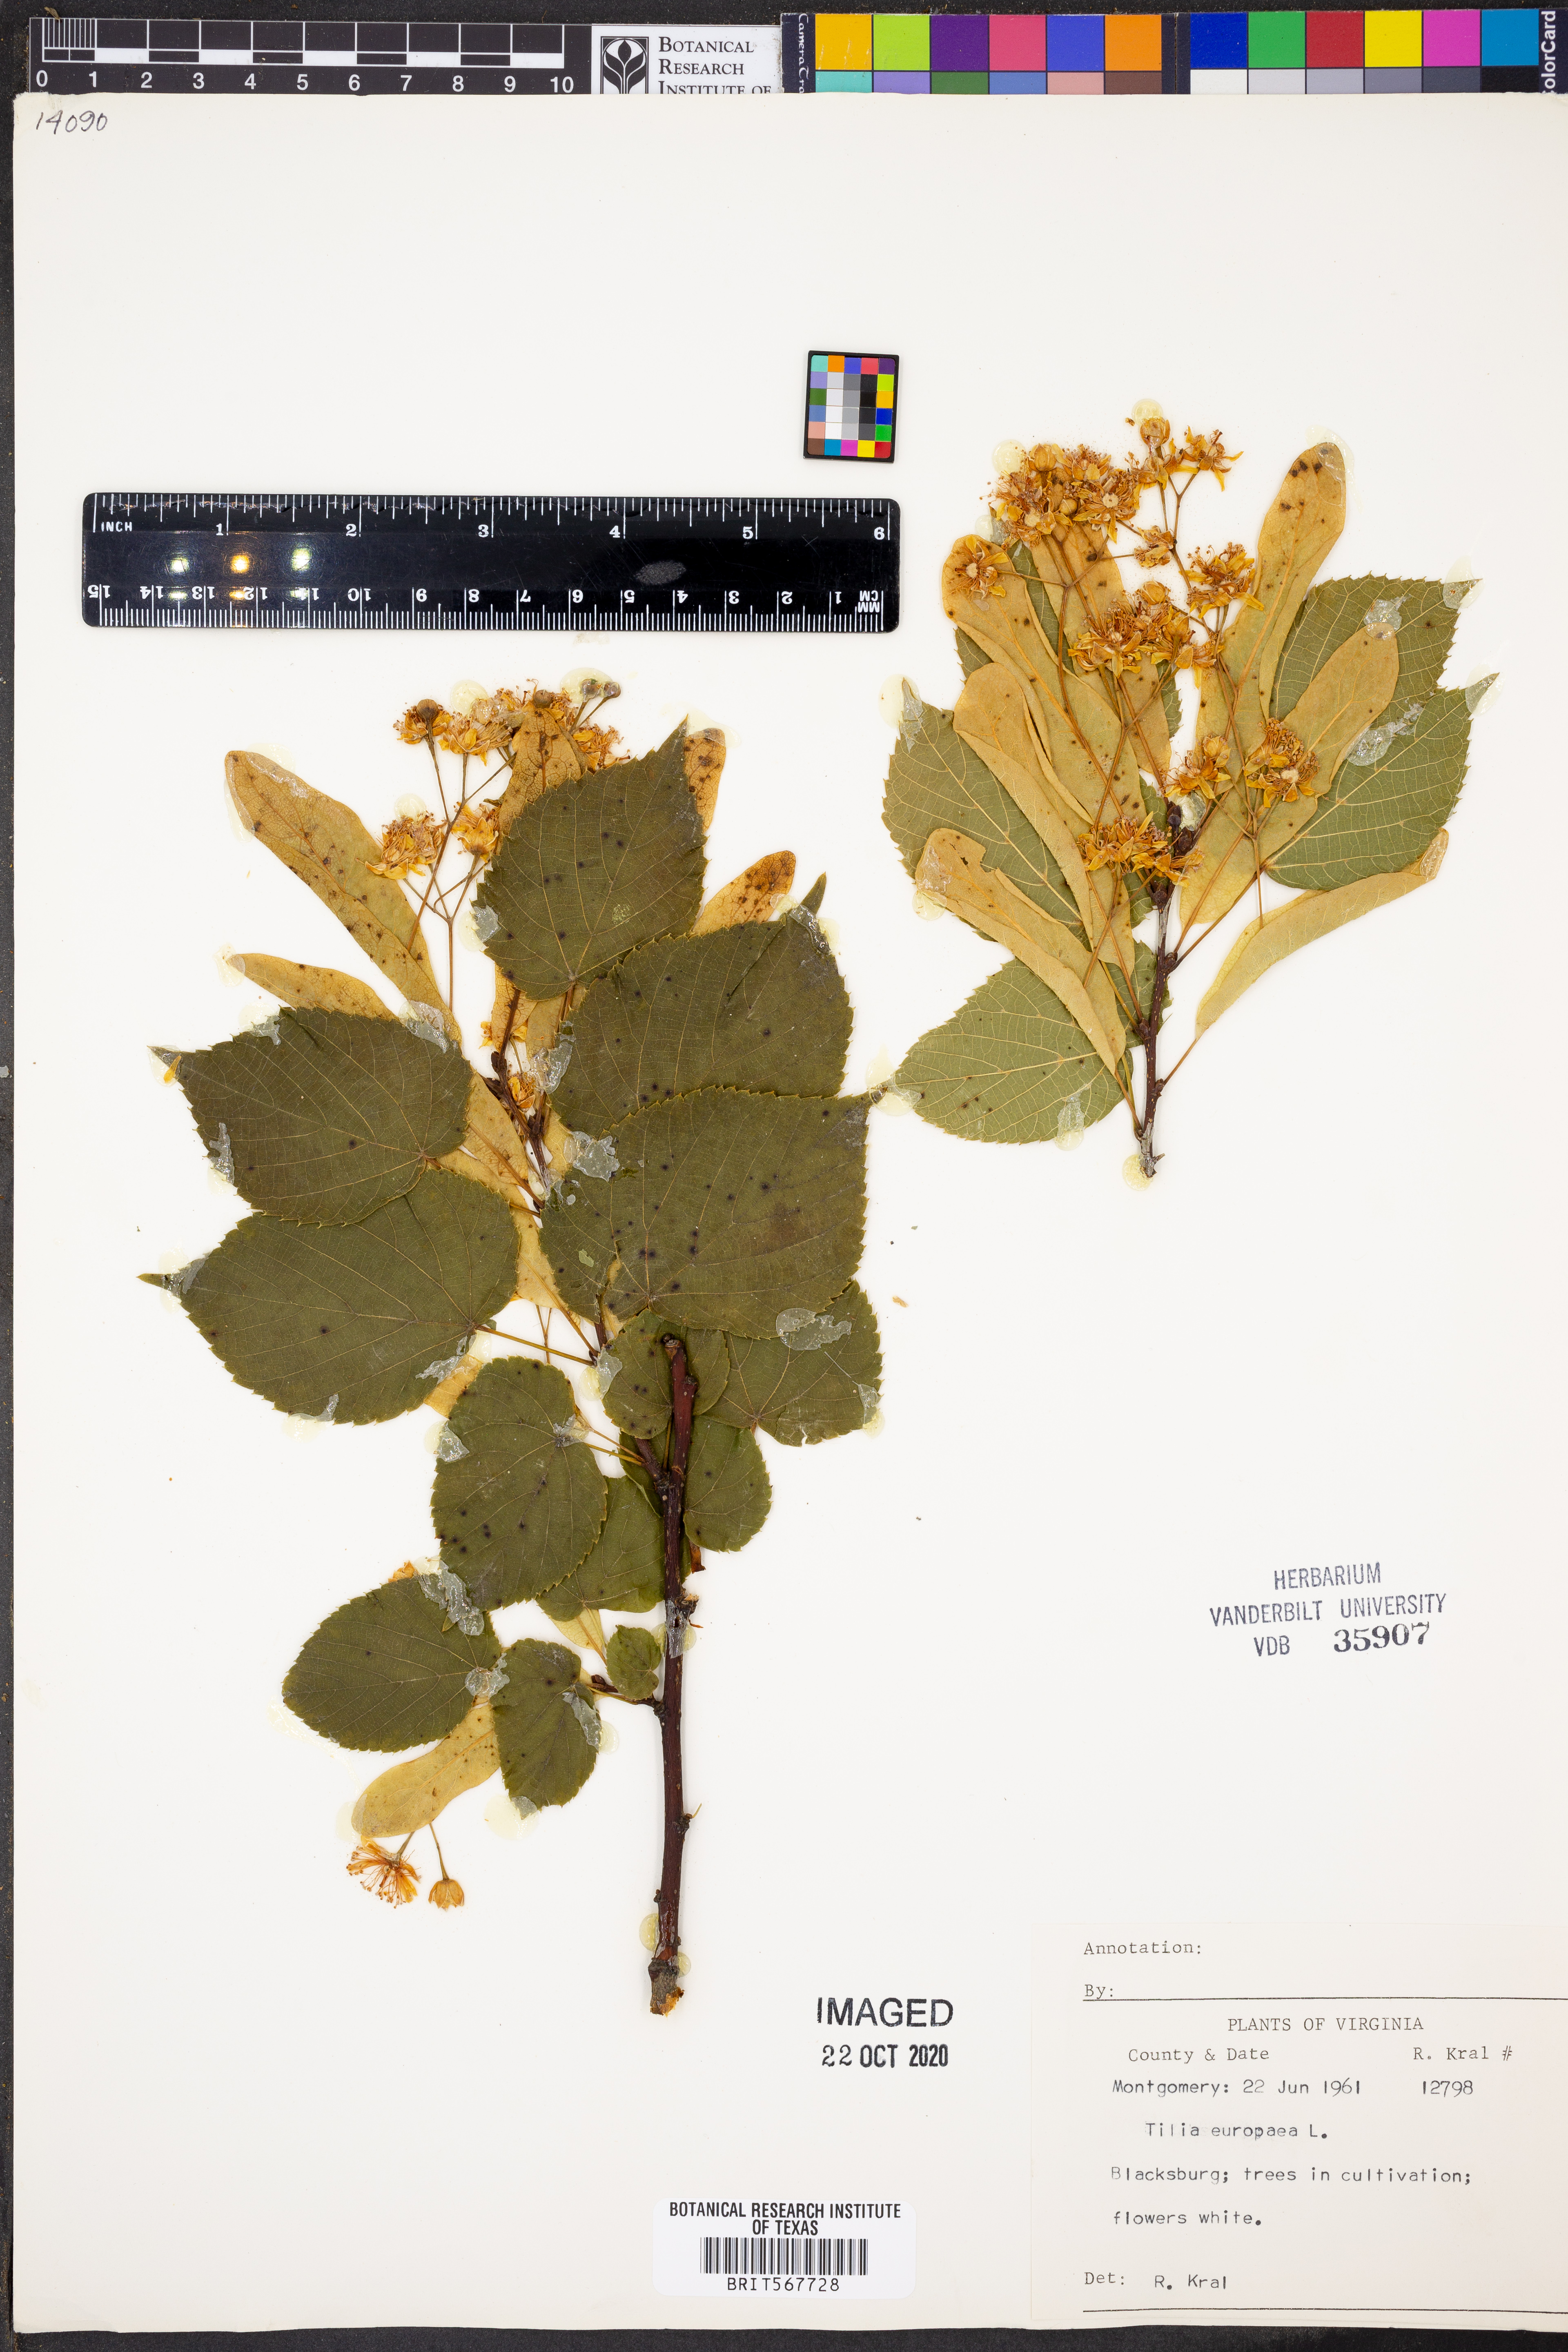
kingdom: Plantae
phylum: Tracheophyta
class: Magnoliopsida
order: Malvales
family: Malvaceae
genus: Tilia
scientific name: Tilia europaea
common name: European linden
